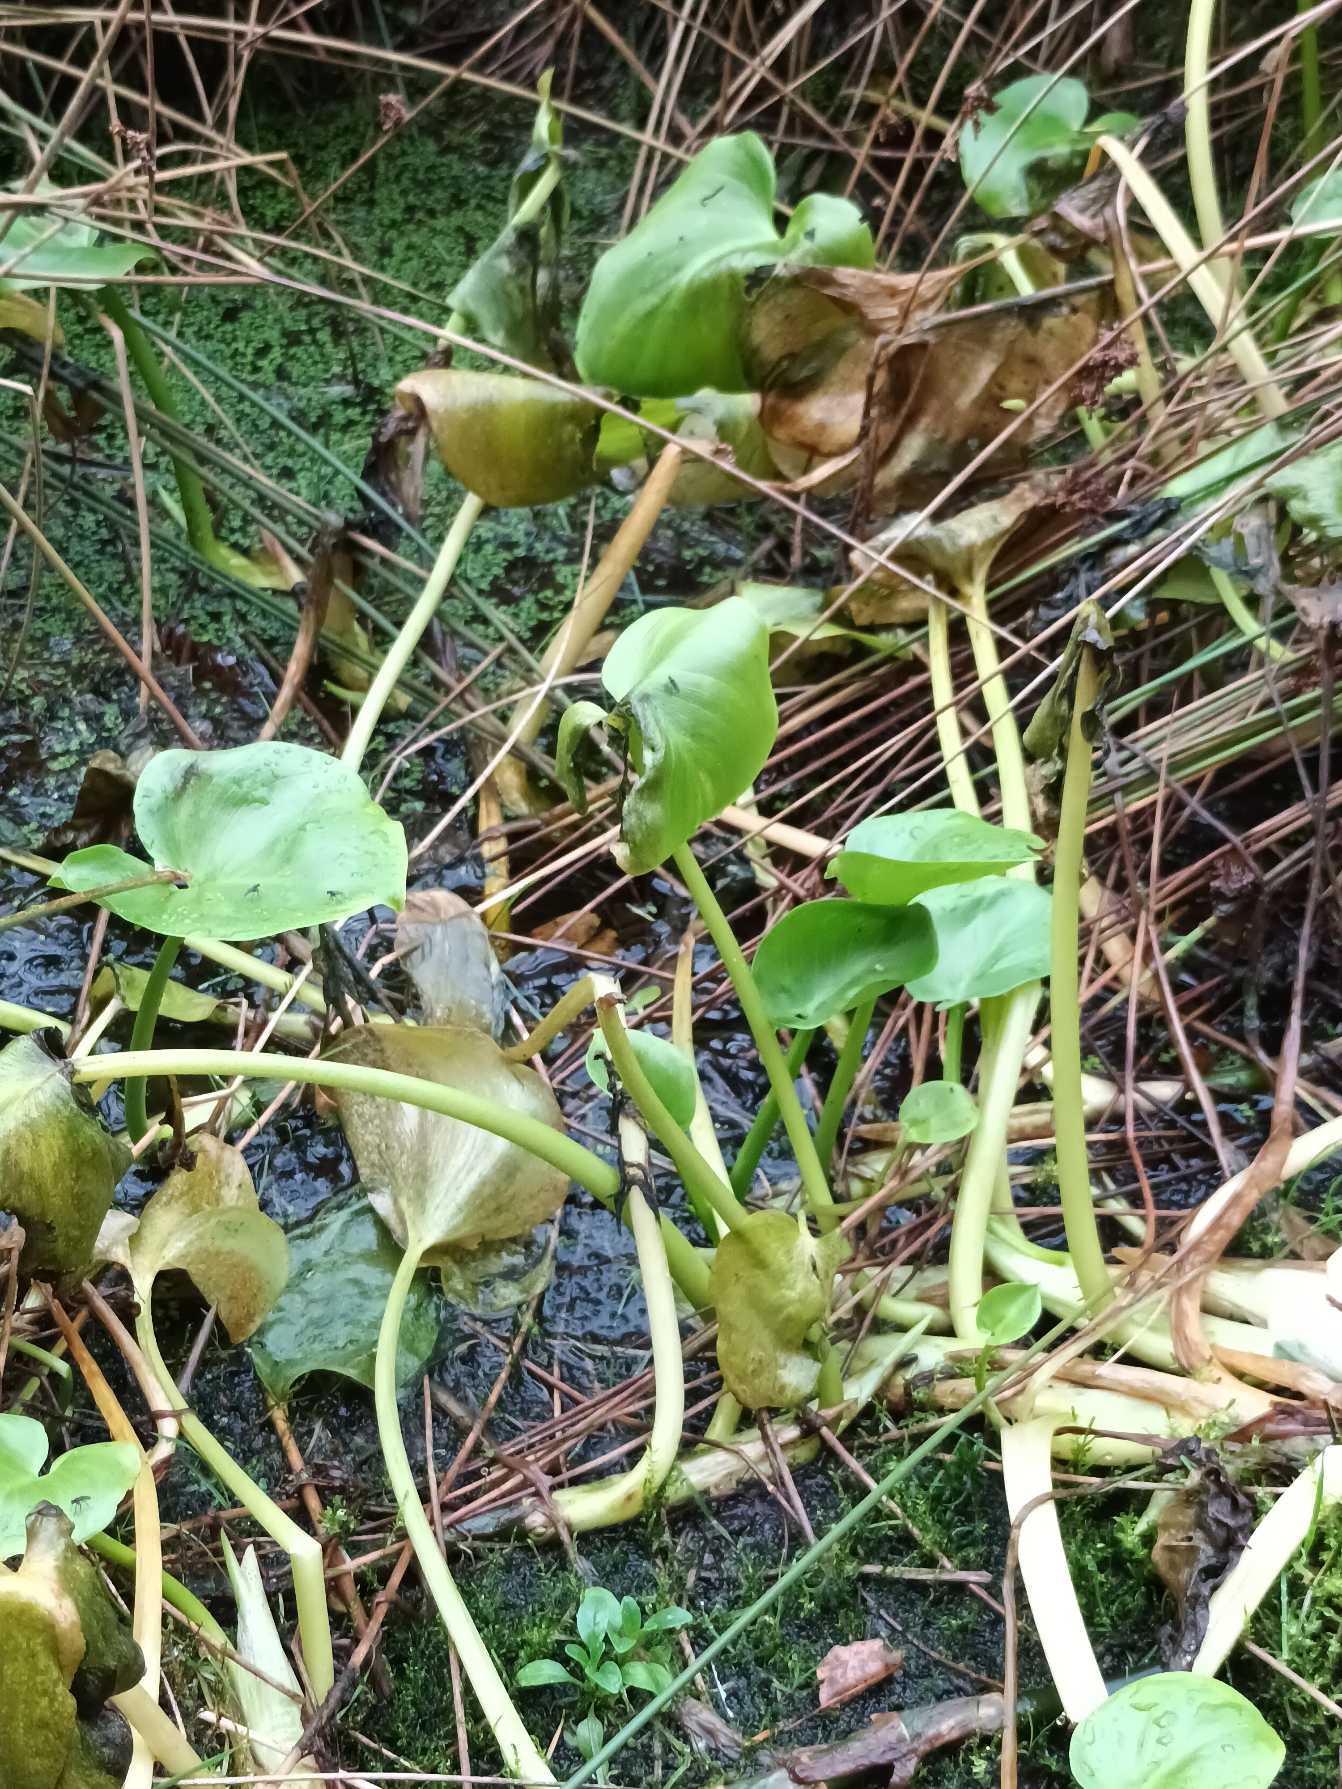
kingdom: Plantae
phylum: Tracheophyta
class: Liliopsida
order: Alismatales
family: Araceae
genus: Calla
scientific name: Calla palustris
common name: Kærmysse
